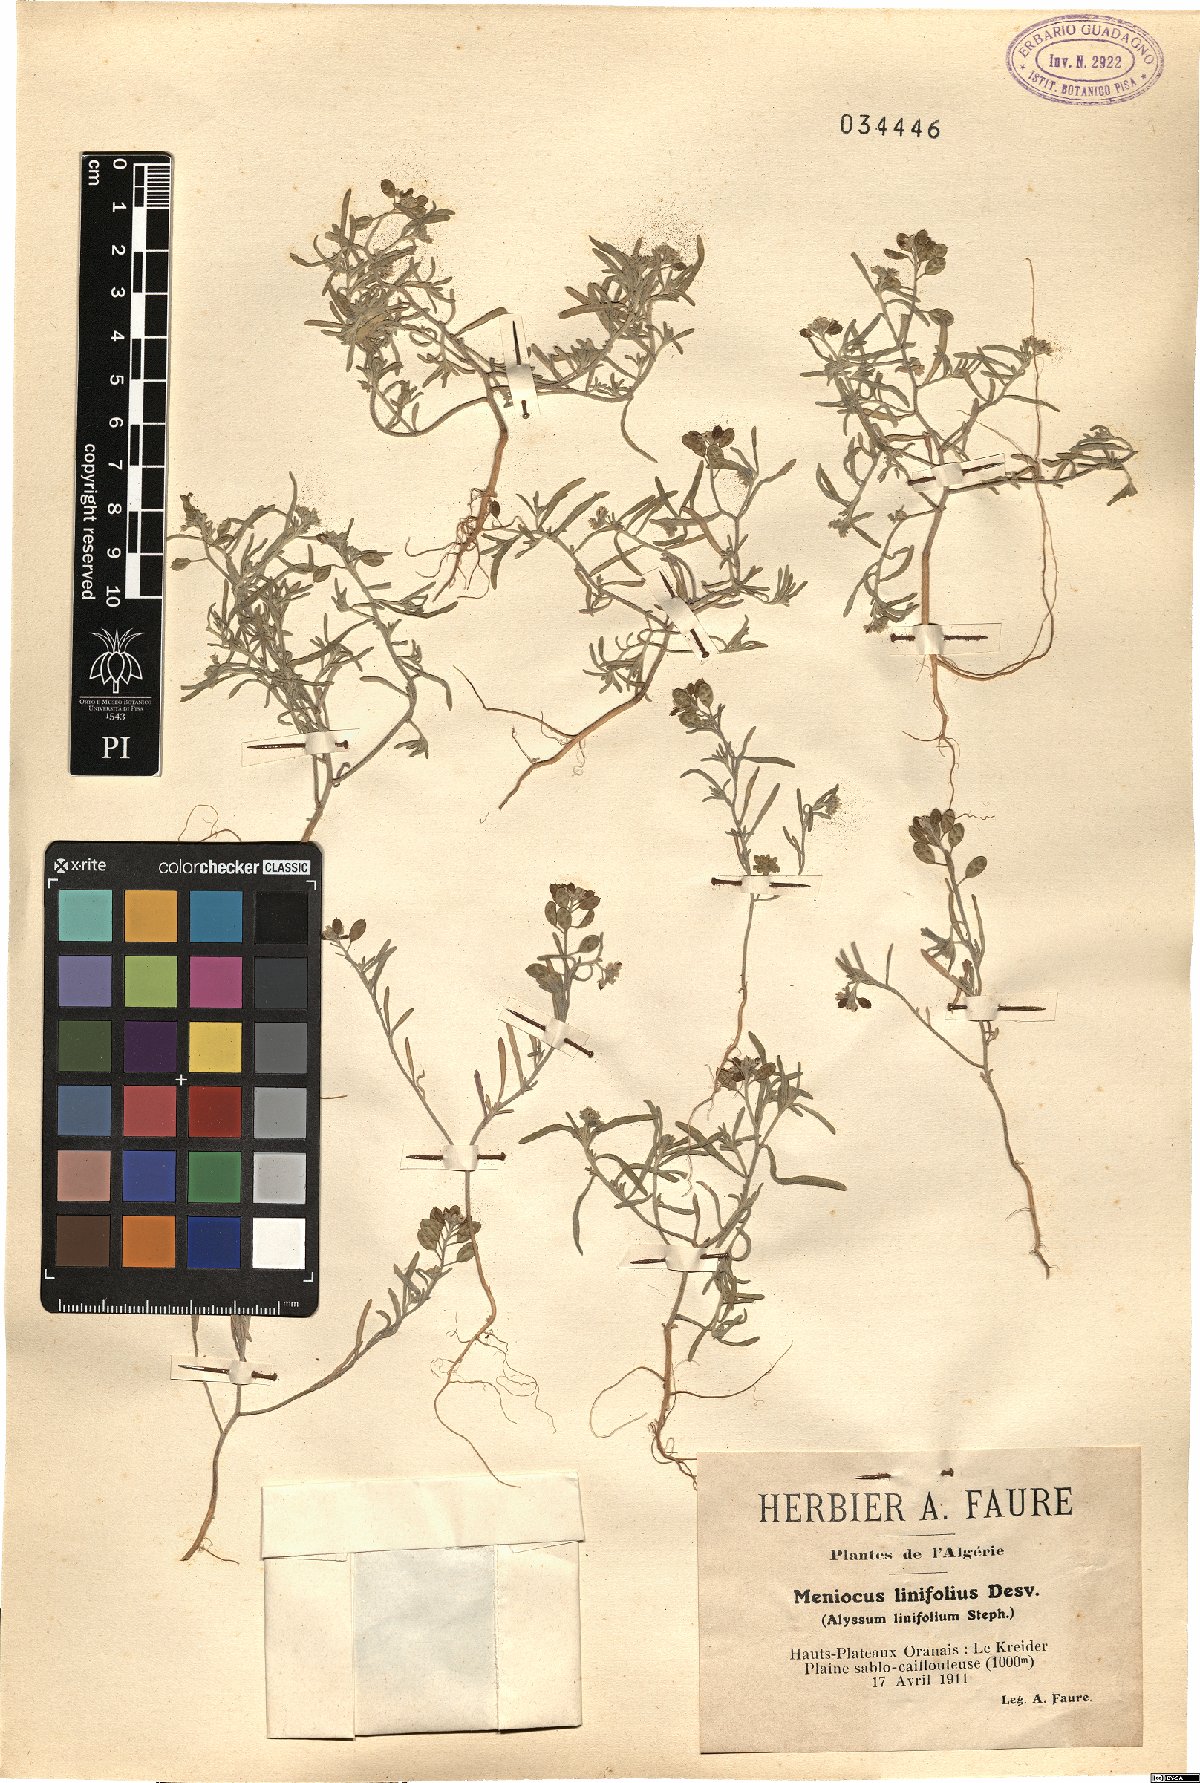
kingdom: Plantae
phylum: Tracheophyta
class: Magnoliopsida
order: Brassicales
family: Brassicaceae
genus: Meniocus
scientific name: Meniocus linifolius
